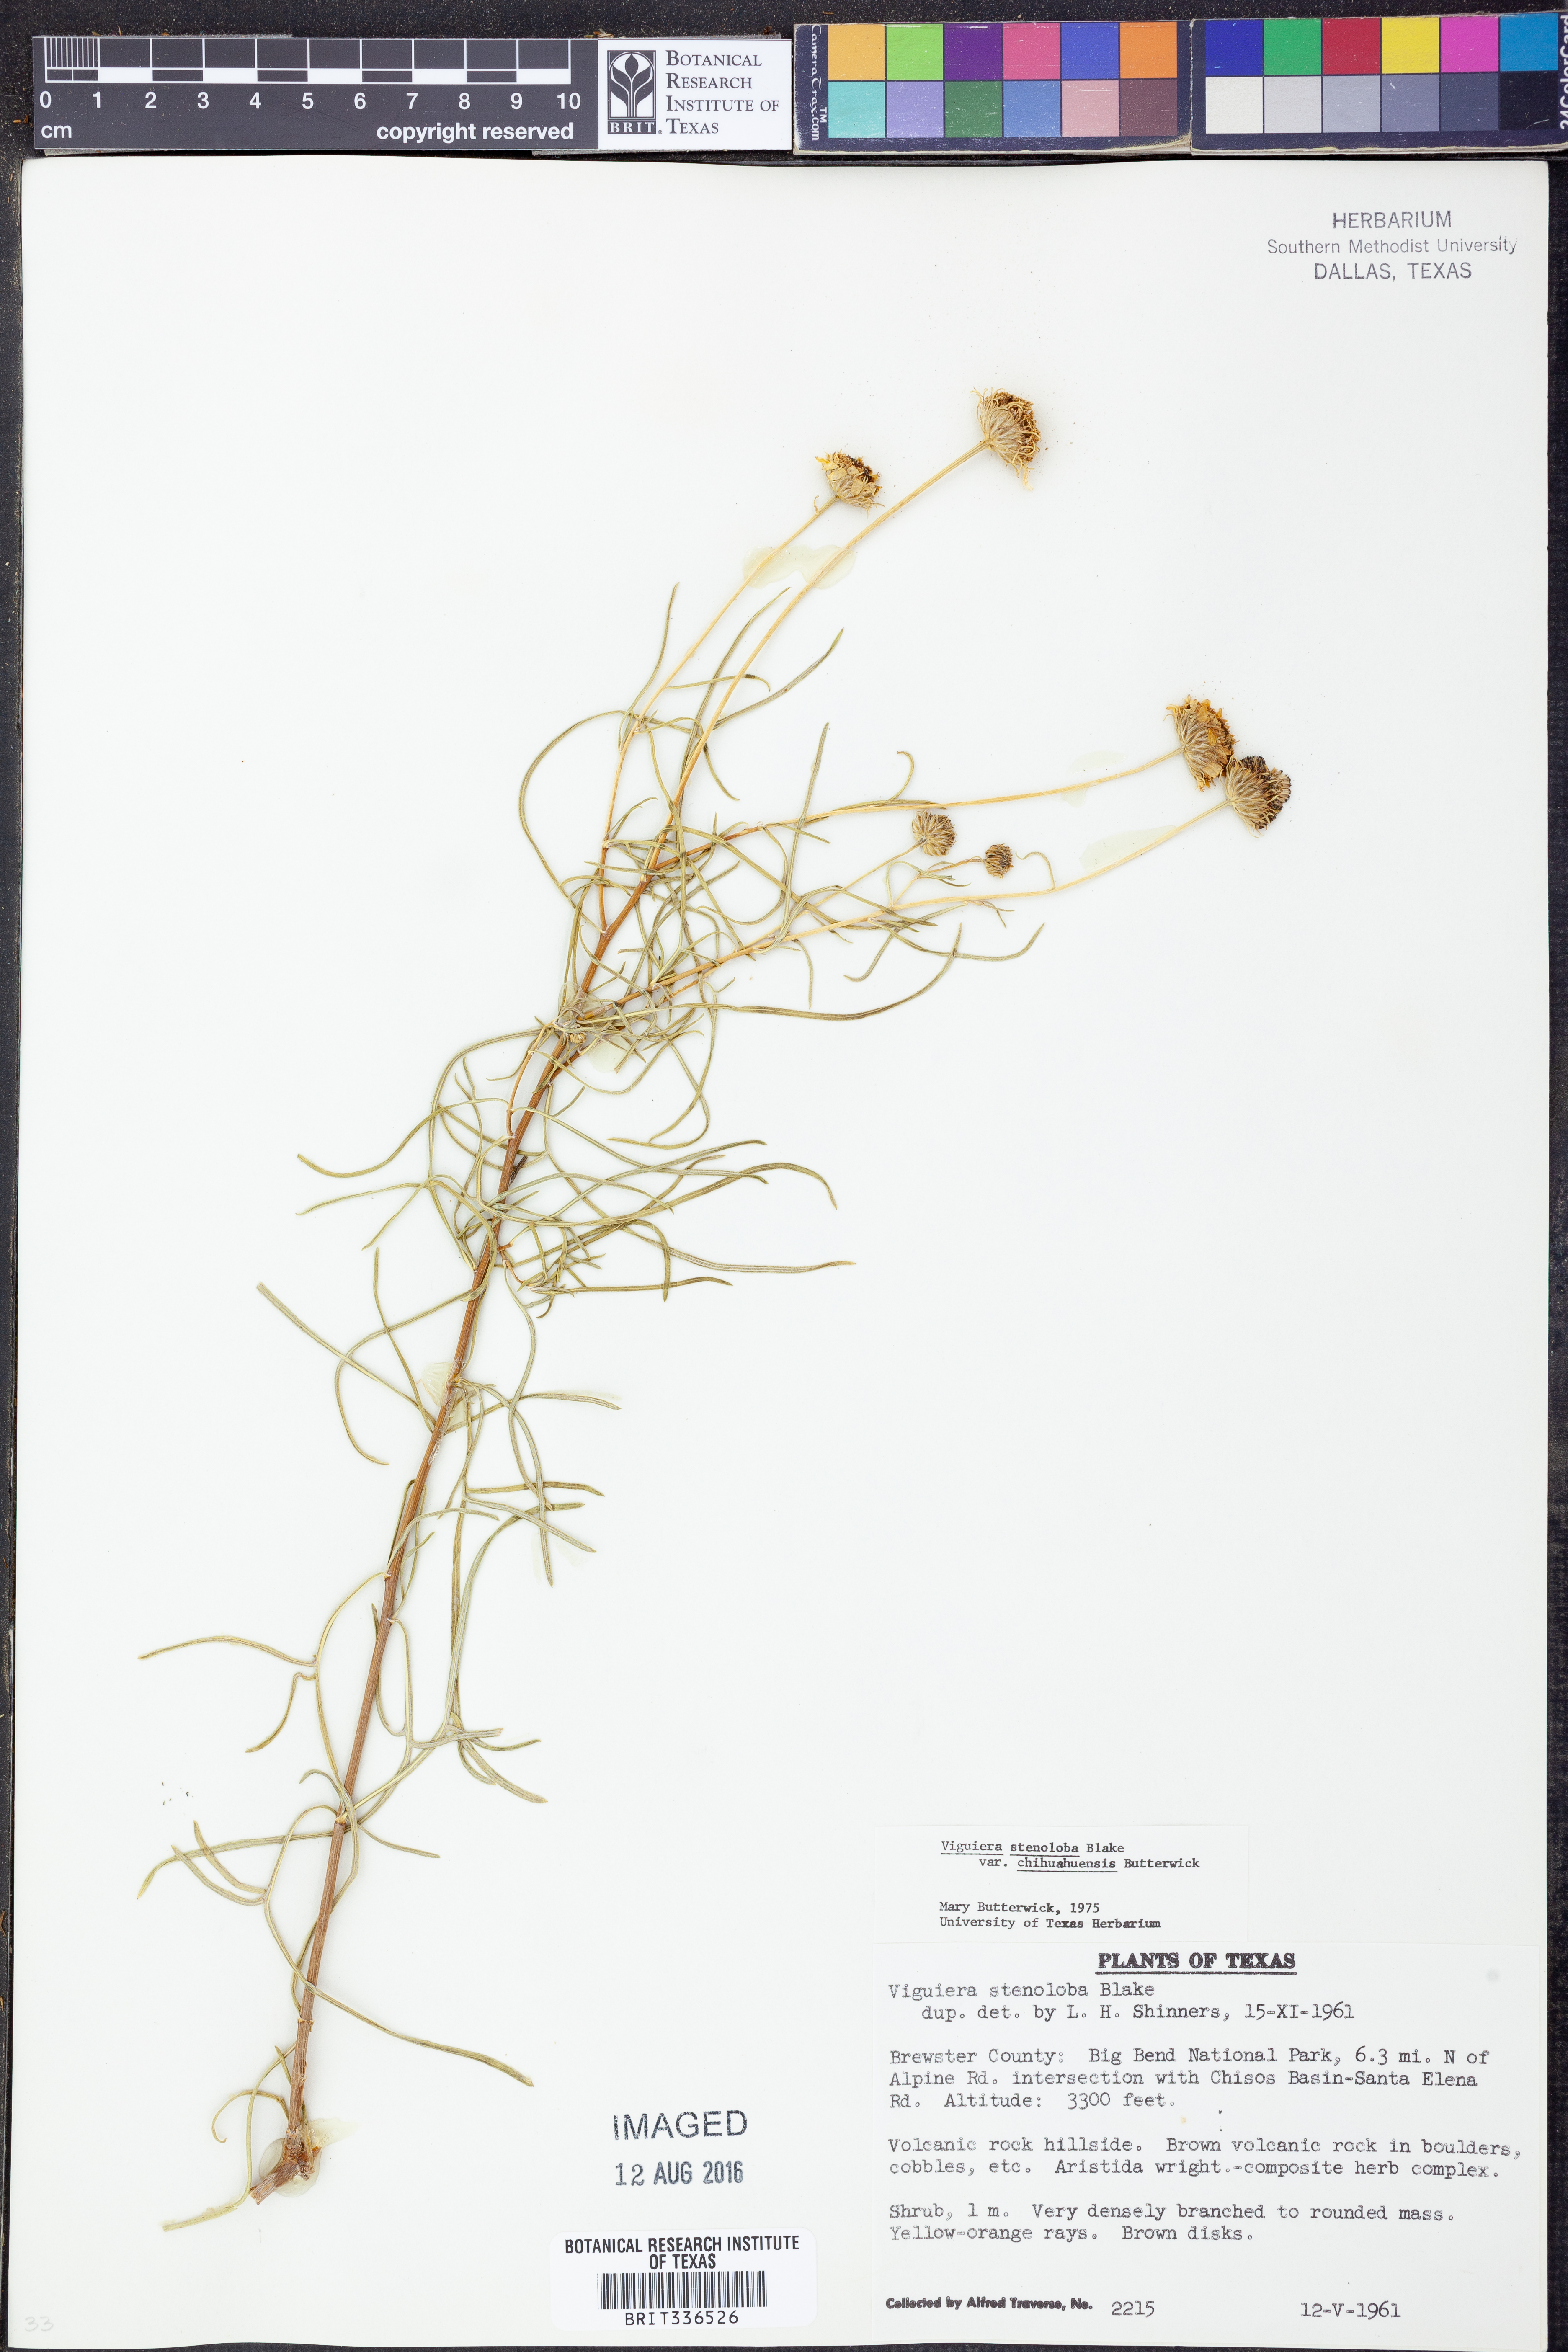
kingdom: Plantae
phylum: Tracheophyta
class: Magnoliopsida
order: Asterales
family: Asteraceae
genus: Sidneya
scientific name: Sidneya tenuifolia
